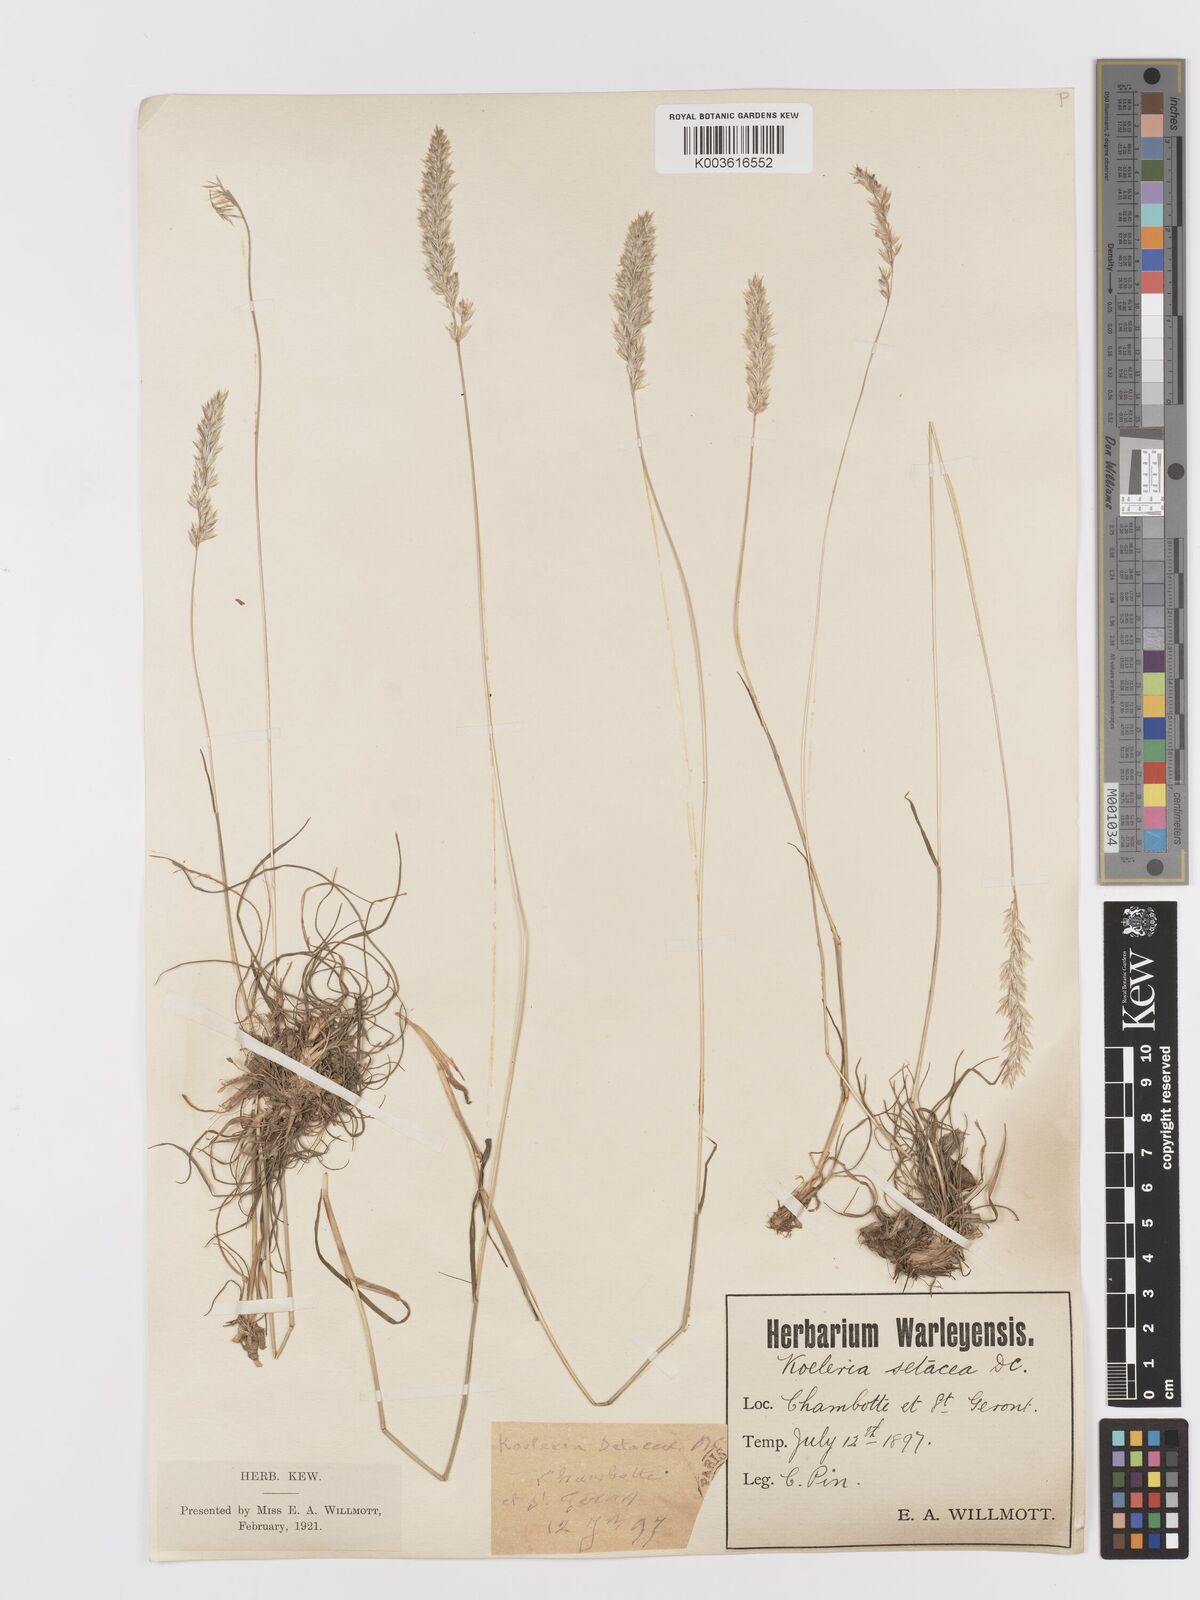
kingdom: Plantae
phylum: Tracheophyta
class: Liliopsida
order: Poales
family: Poaceae
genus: Koeleria
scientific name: Koeleria vallesiana
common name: Somerset hair-grass
